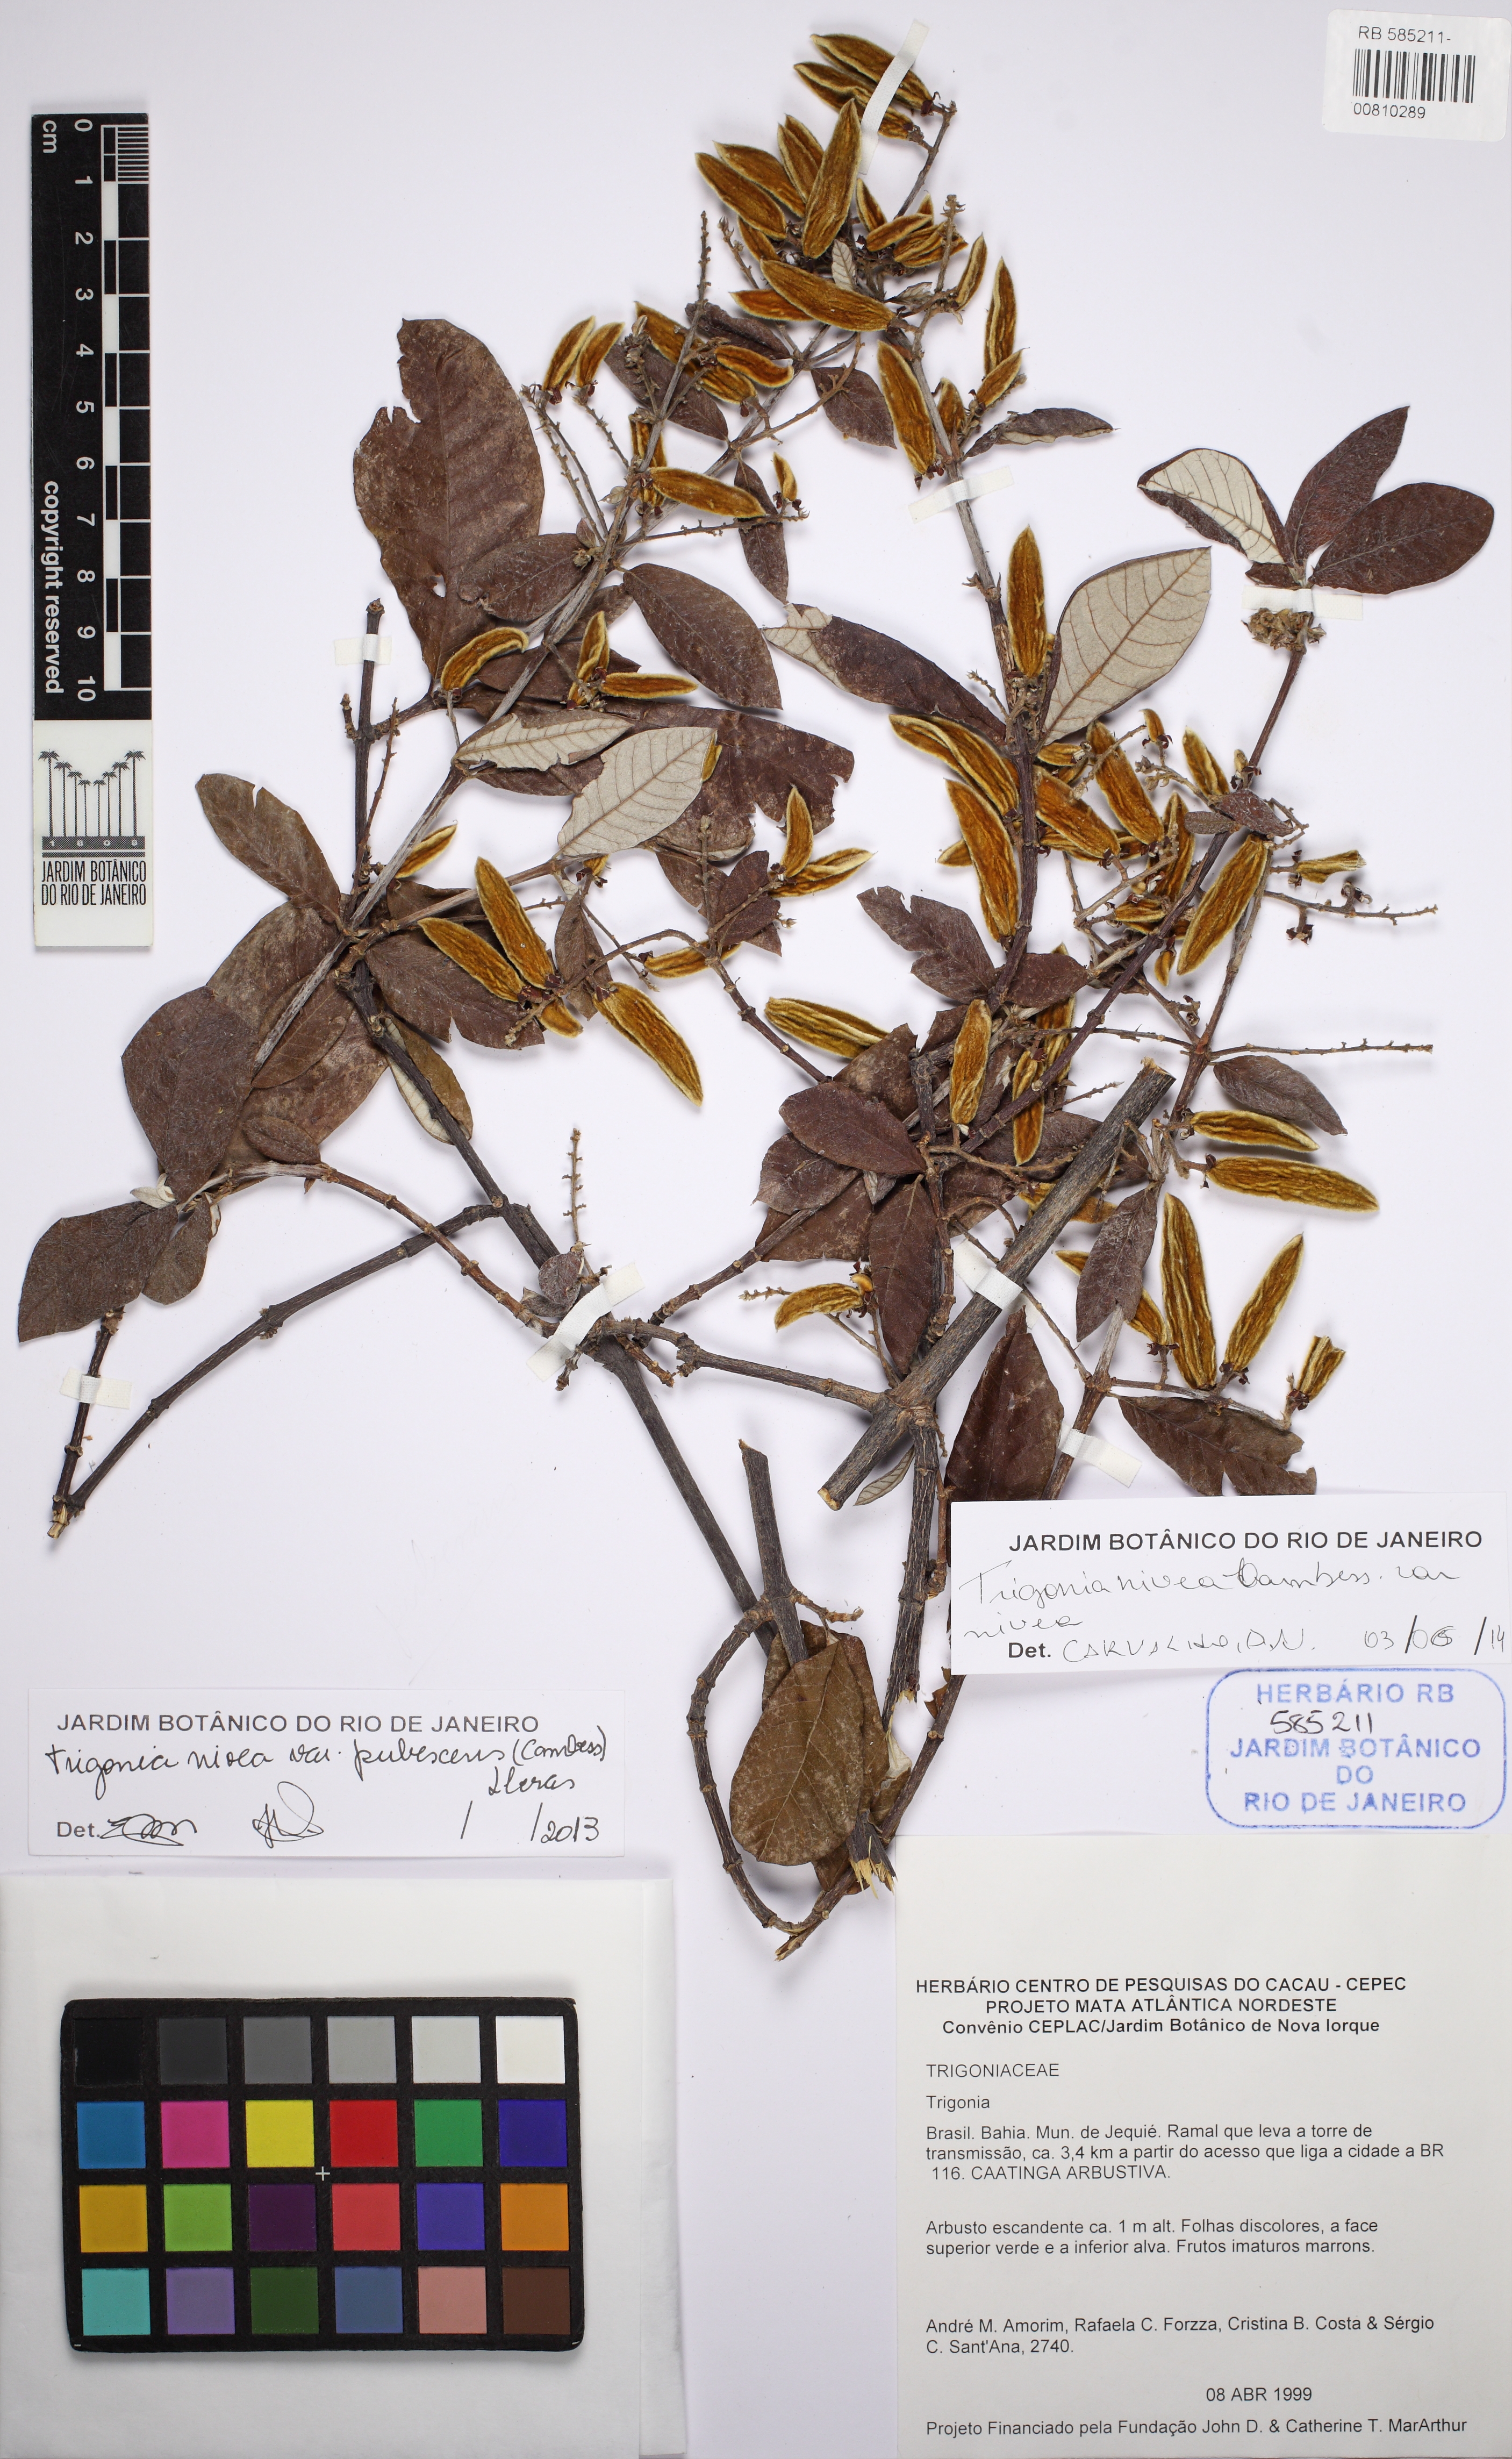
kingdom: Plantae
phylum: Tracheophyta
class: Magnoliopsida
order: Malpighiales
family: Trigoniaceae
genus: Trigonia
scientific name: Trigonia nivea
